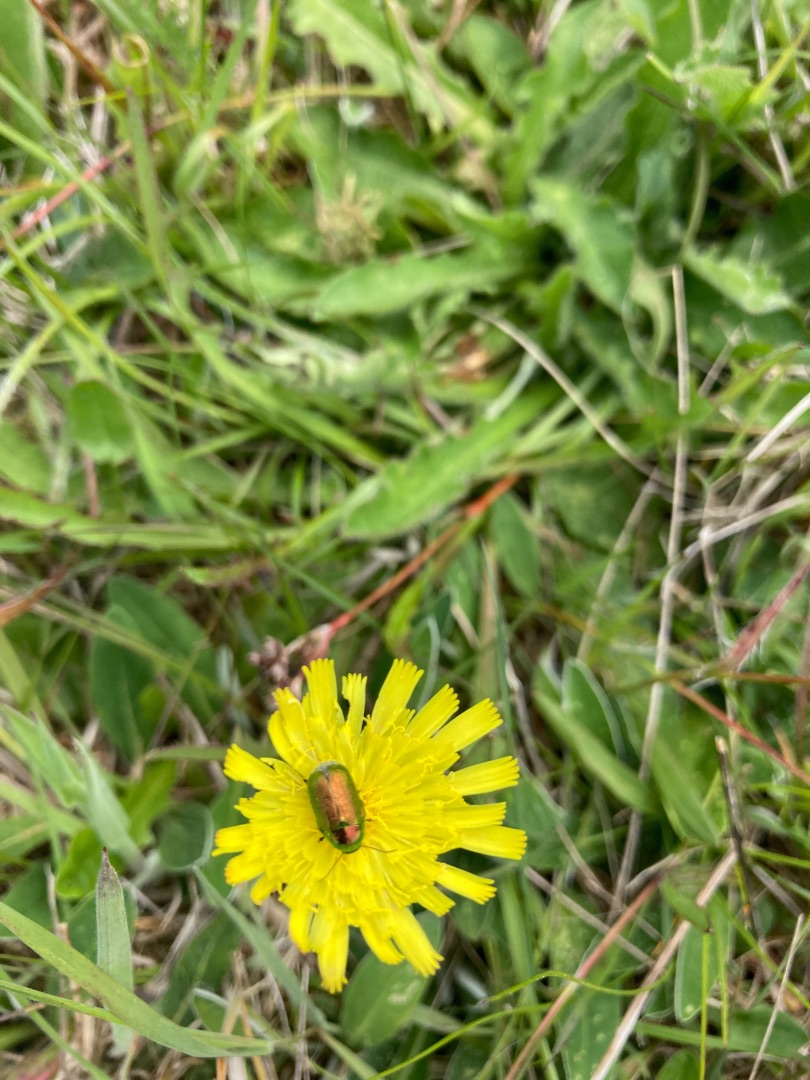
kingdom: Animalia
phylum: Arthropoda
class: Insecta
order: Coleoptera
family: Chrysomelidae
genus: Cryptocephalus
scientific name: Cryptocephalus aureolus
